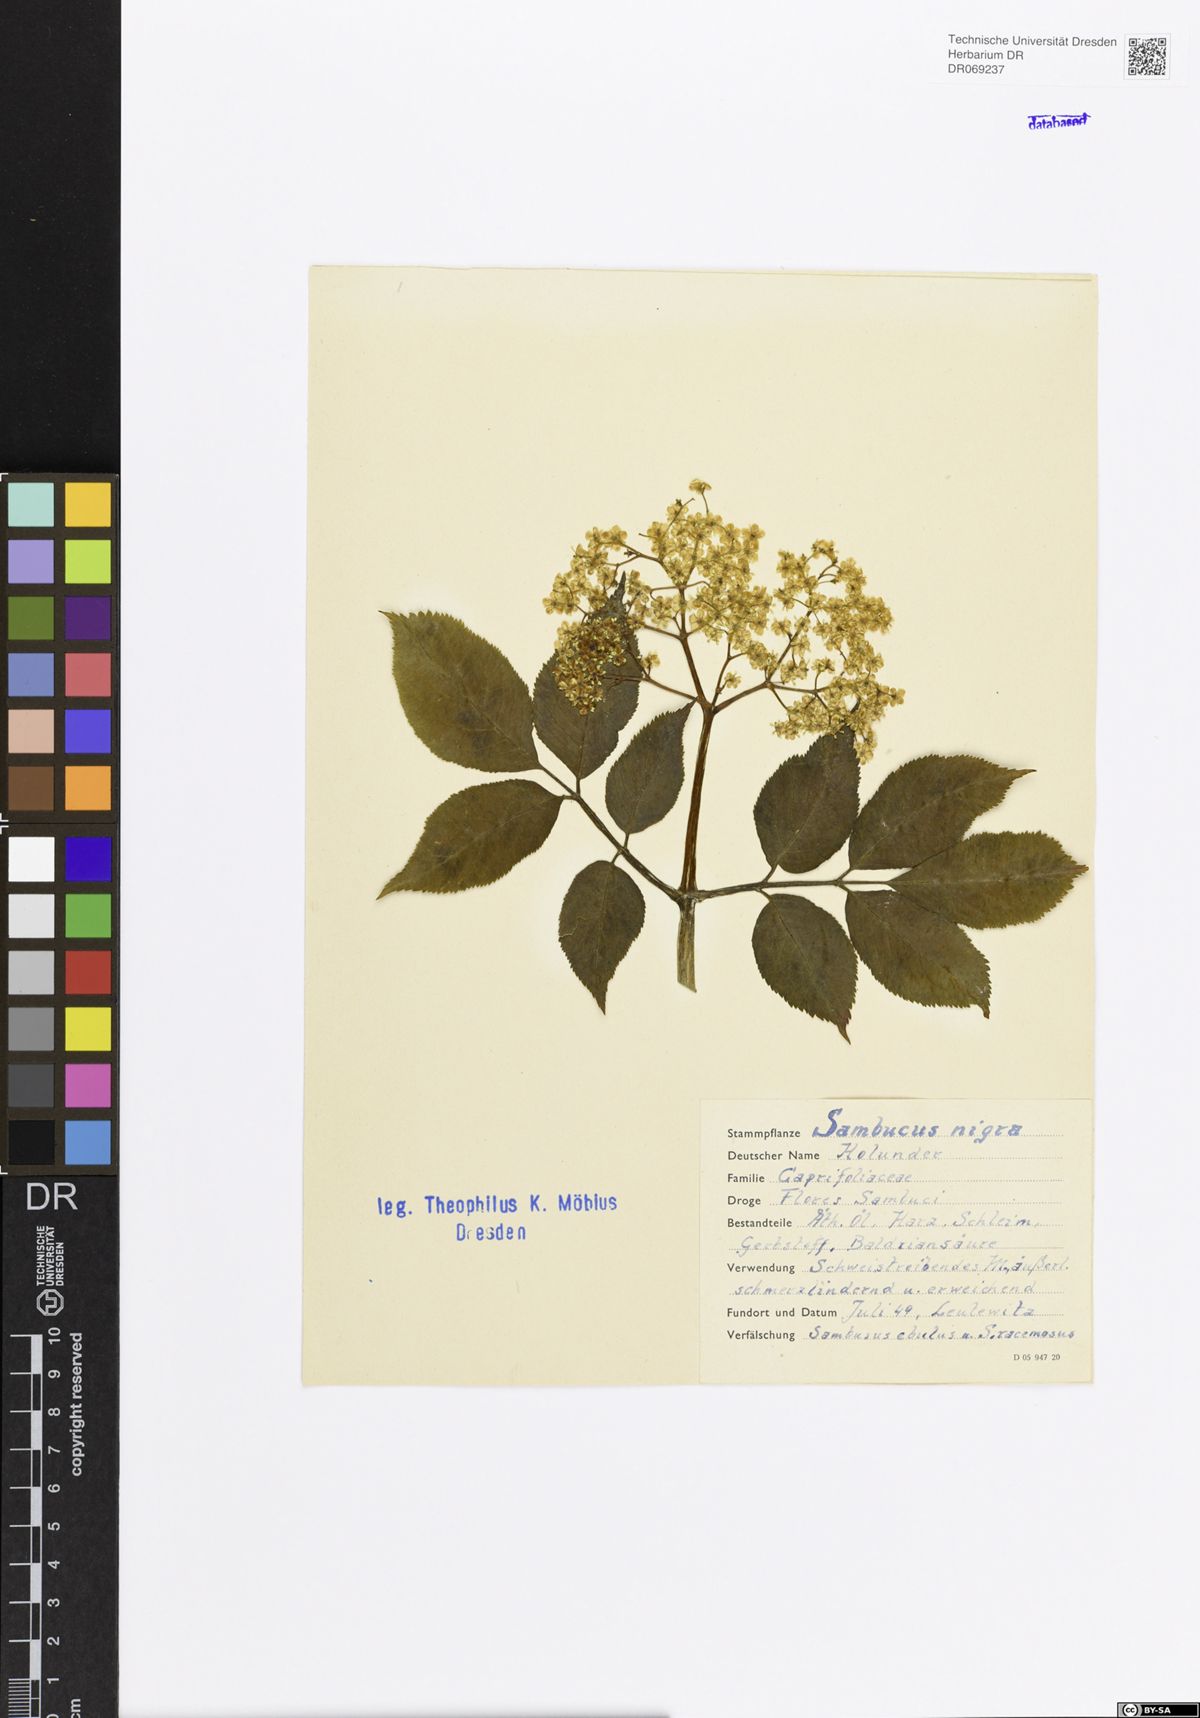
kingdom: Plantae
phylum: Tracheophyta
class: Magnoliopsida
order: Dipsacales
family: Viburnaceae
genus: Sambucus
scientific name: Sambucus nigra
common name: Elder
